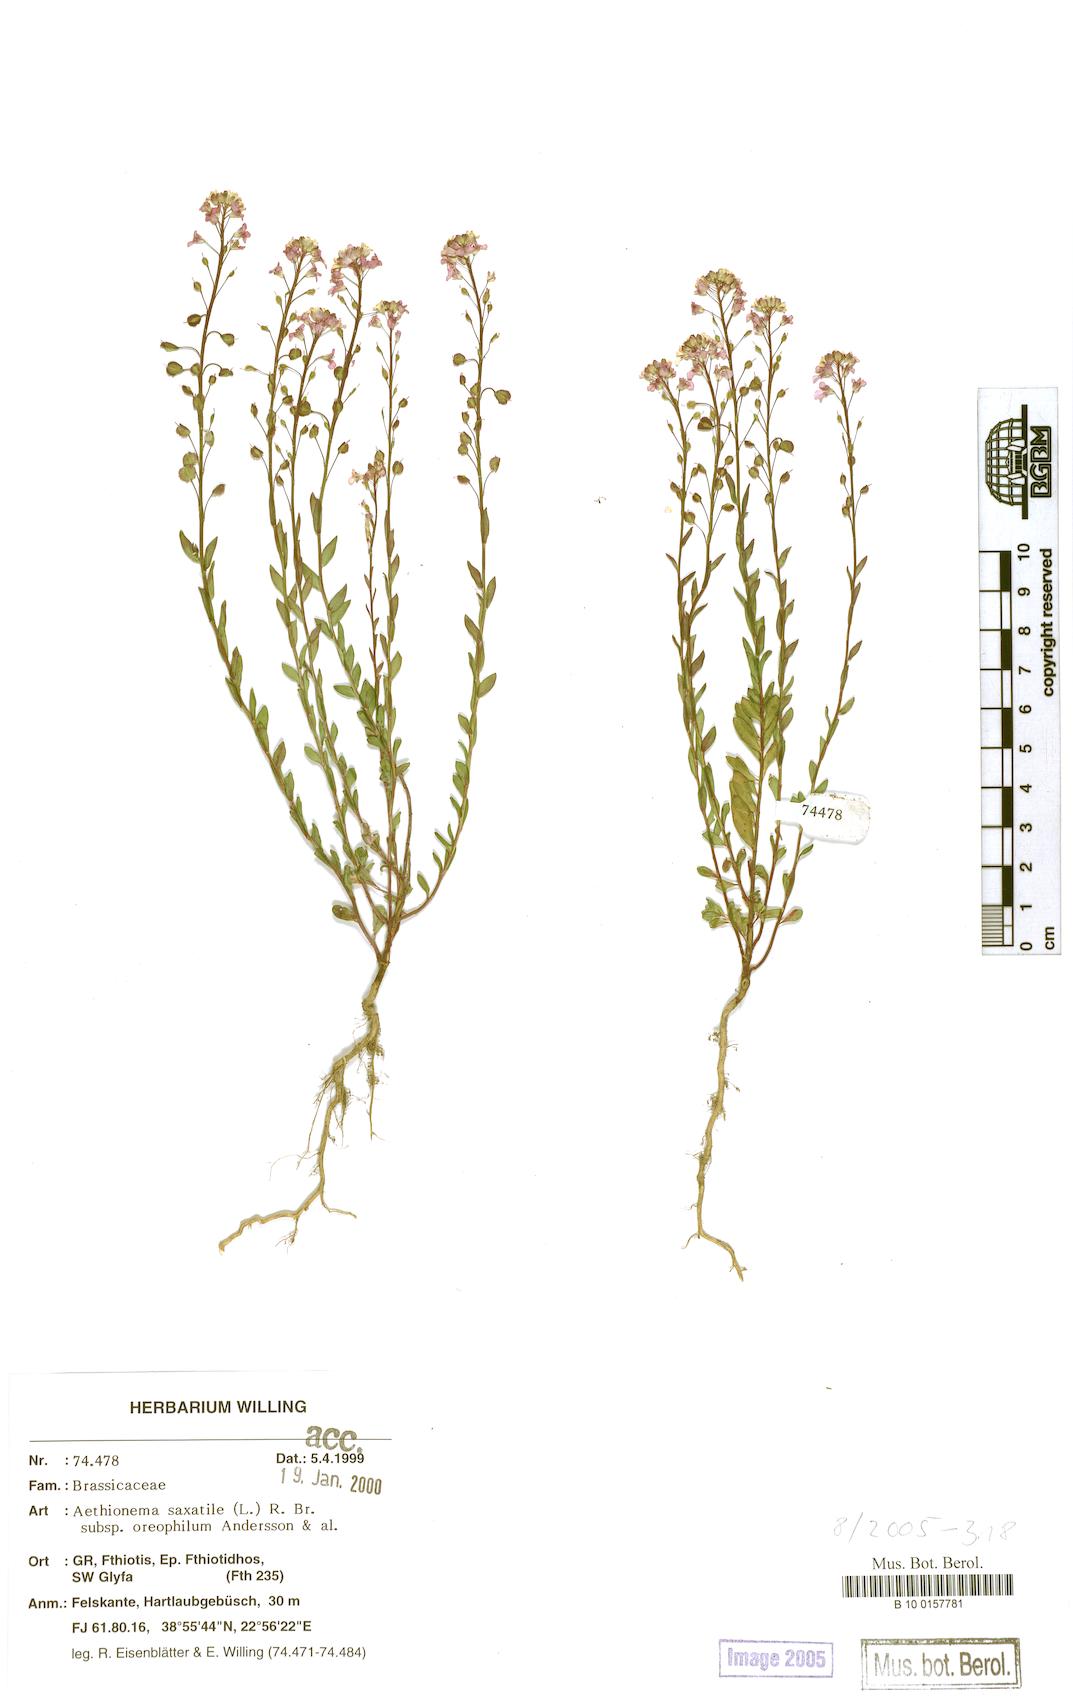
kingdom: Plantae
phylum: Tracheophyta
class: Magnoliopsida
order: Brassicales
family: Brassicaceae
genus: Aethionema
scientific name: Aethionema saxatile
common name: Burnt candytuft
